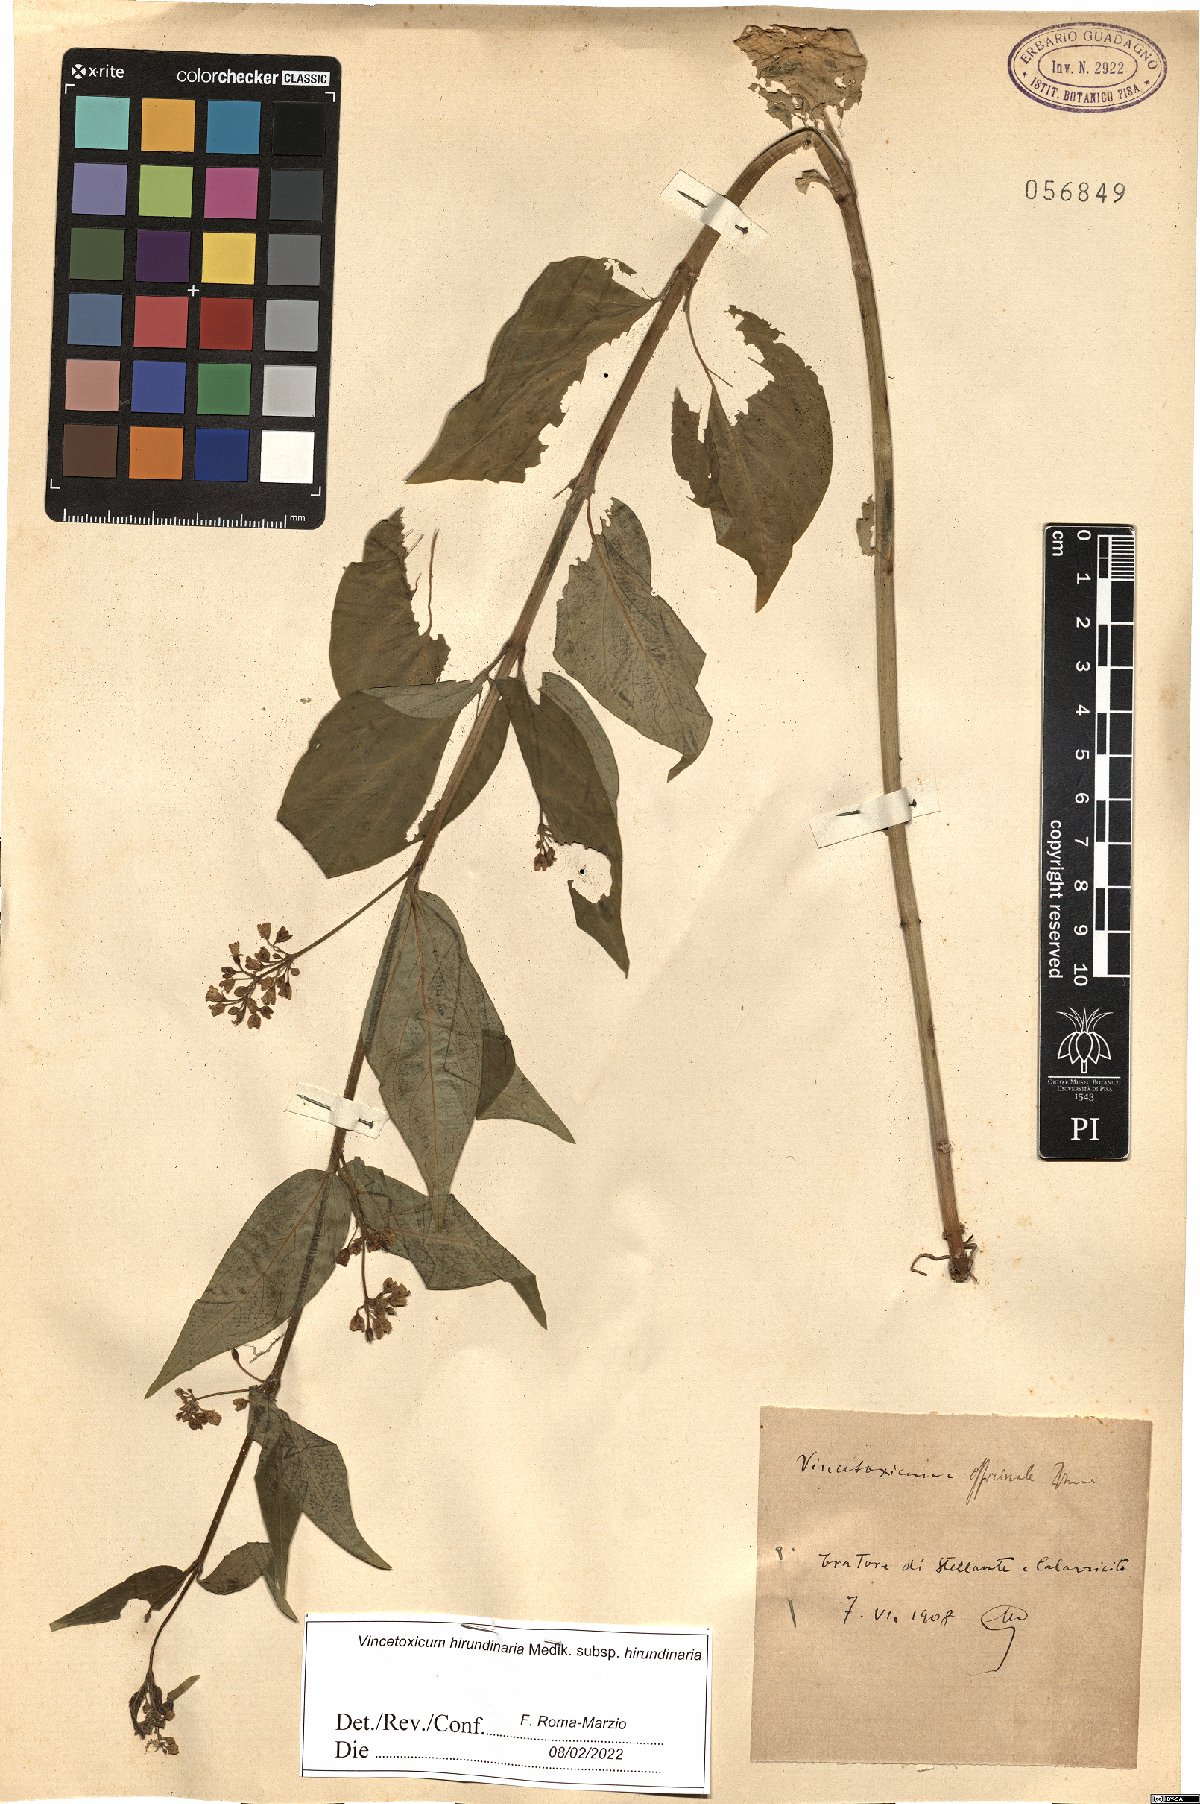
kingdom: Plantae
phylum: Tracheophyta
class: Magnoliopsida
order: Gentianales
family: Apocynaceae
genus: Vincetoxicum
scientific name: Vincetoxicum hirundinaria
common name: White swallowwort
